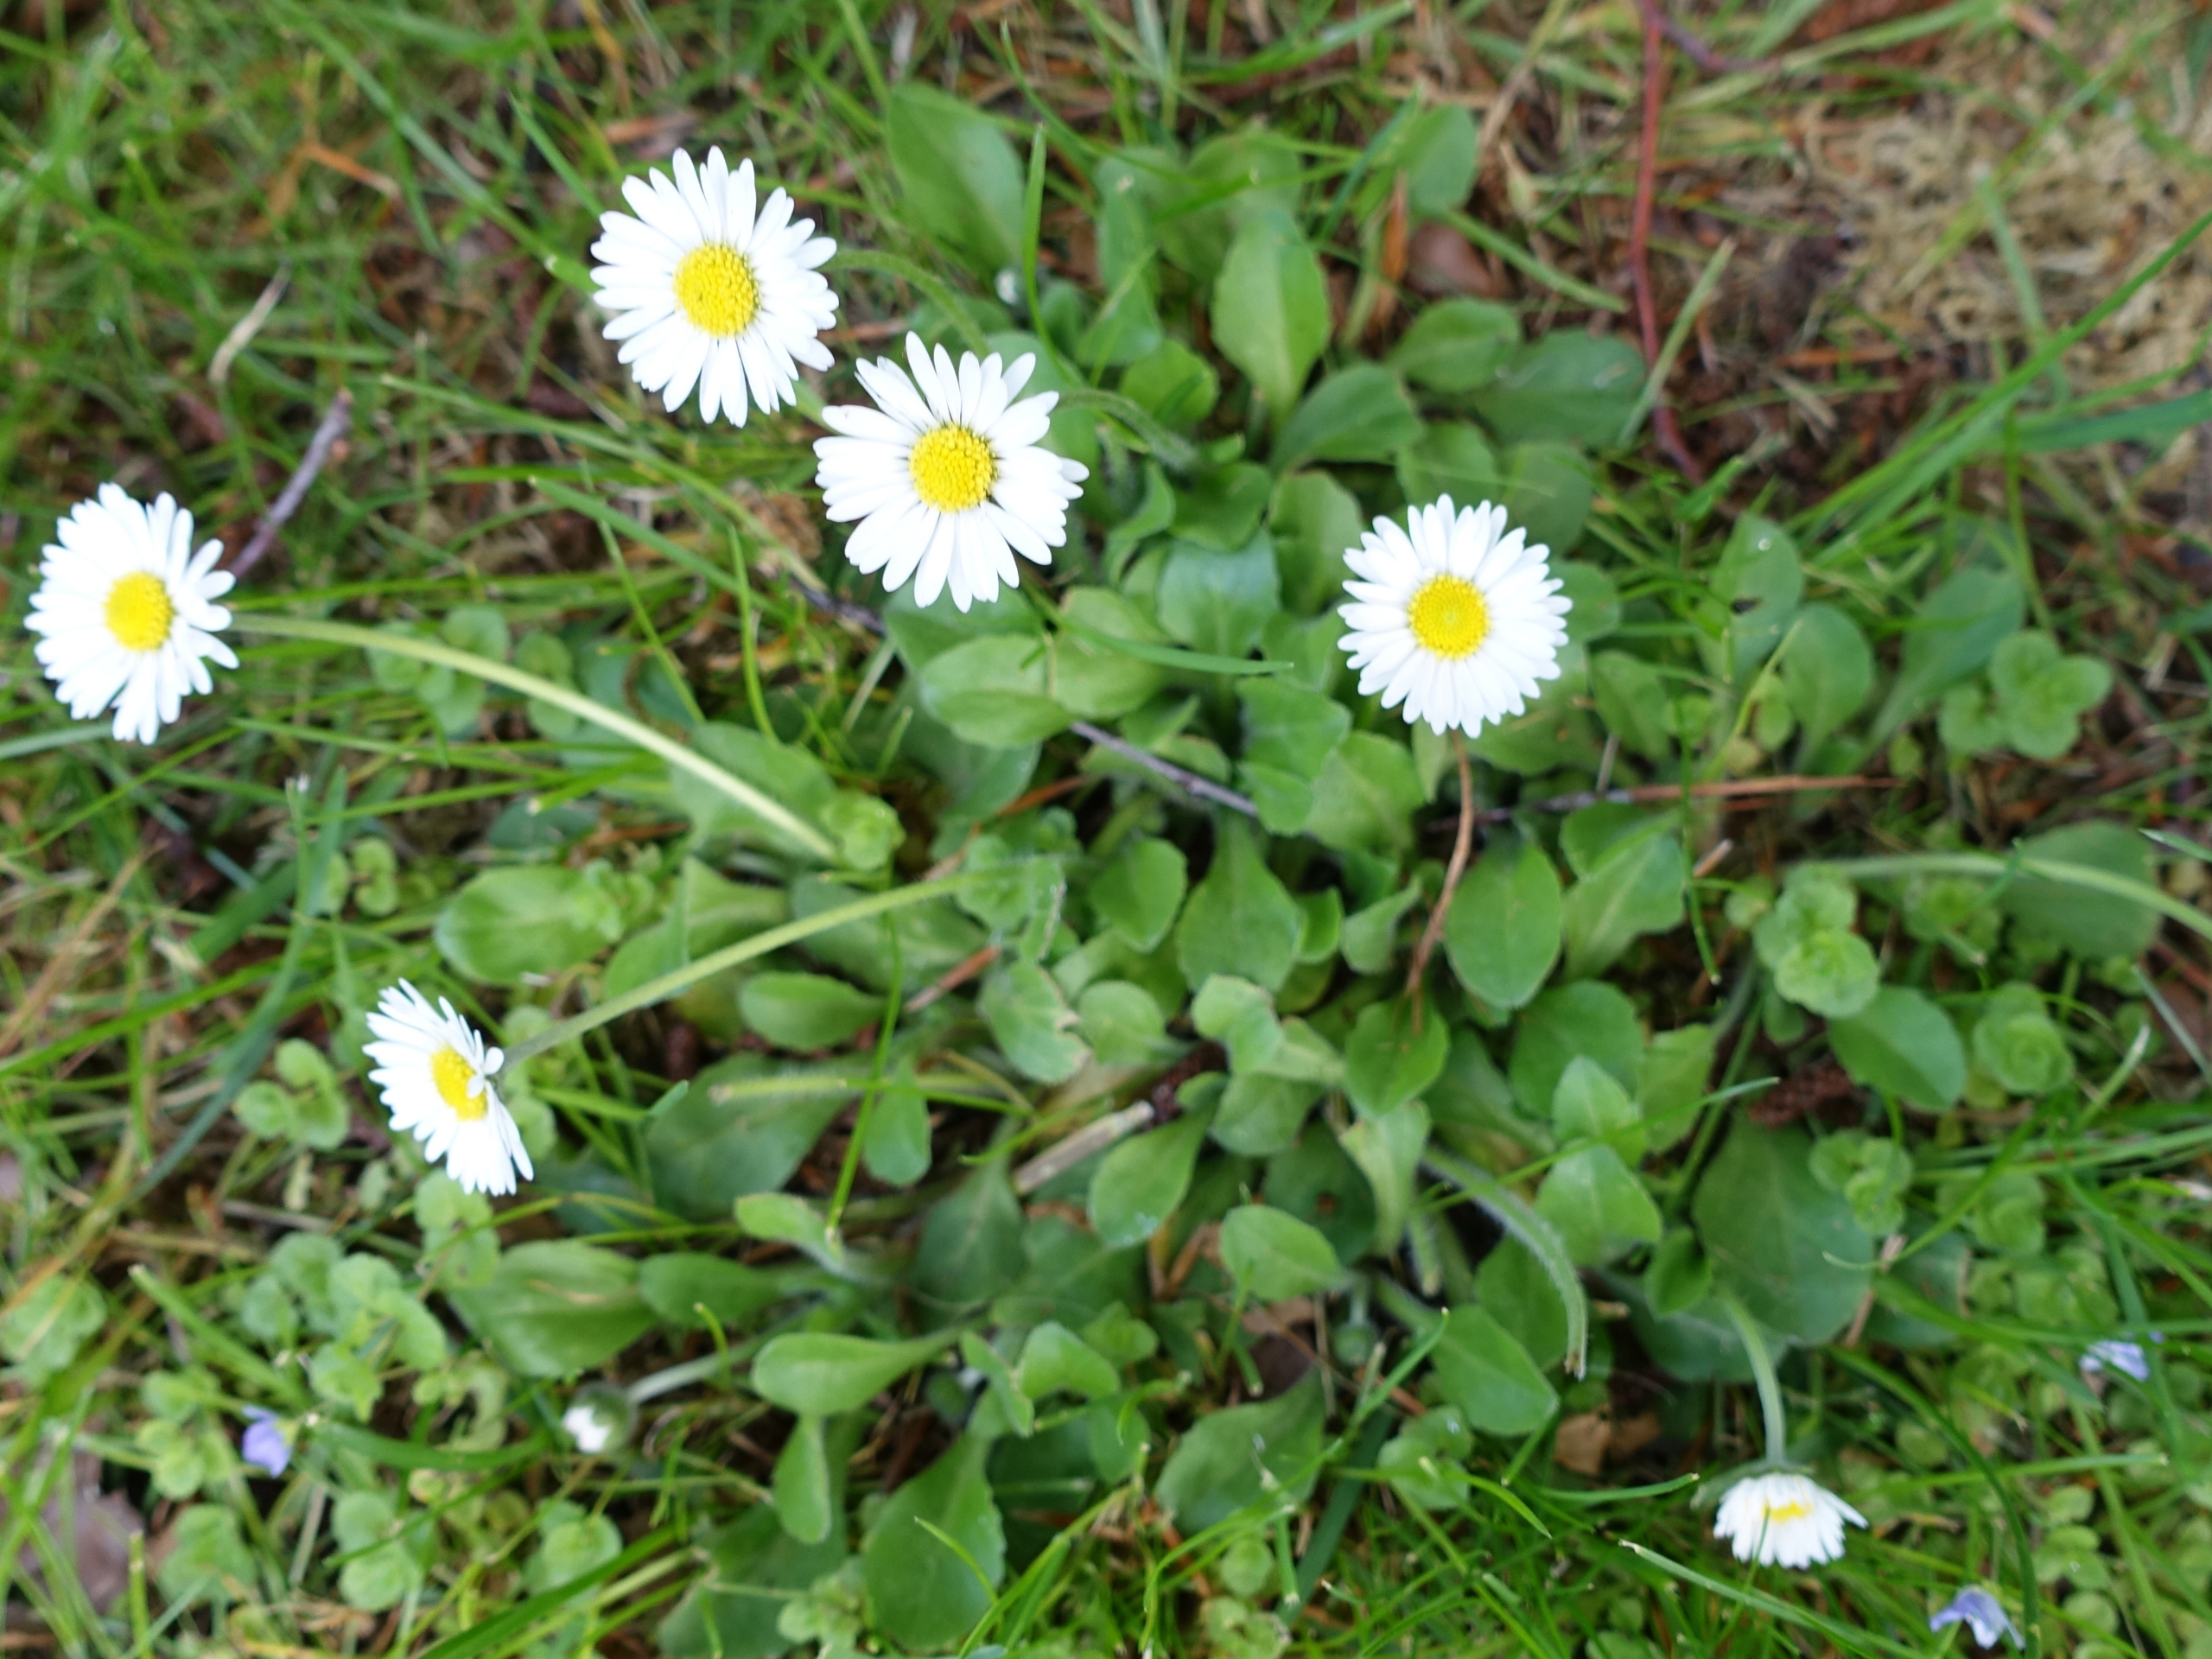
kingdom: Plantae
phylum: Tracheophyta
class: Magnoliopsida
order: Asterales
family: Asteraceae
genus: Bellis
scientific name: Bellis perennis
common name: Tusindfryd
